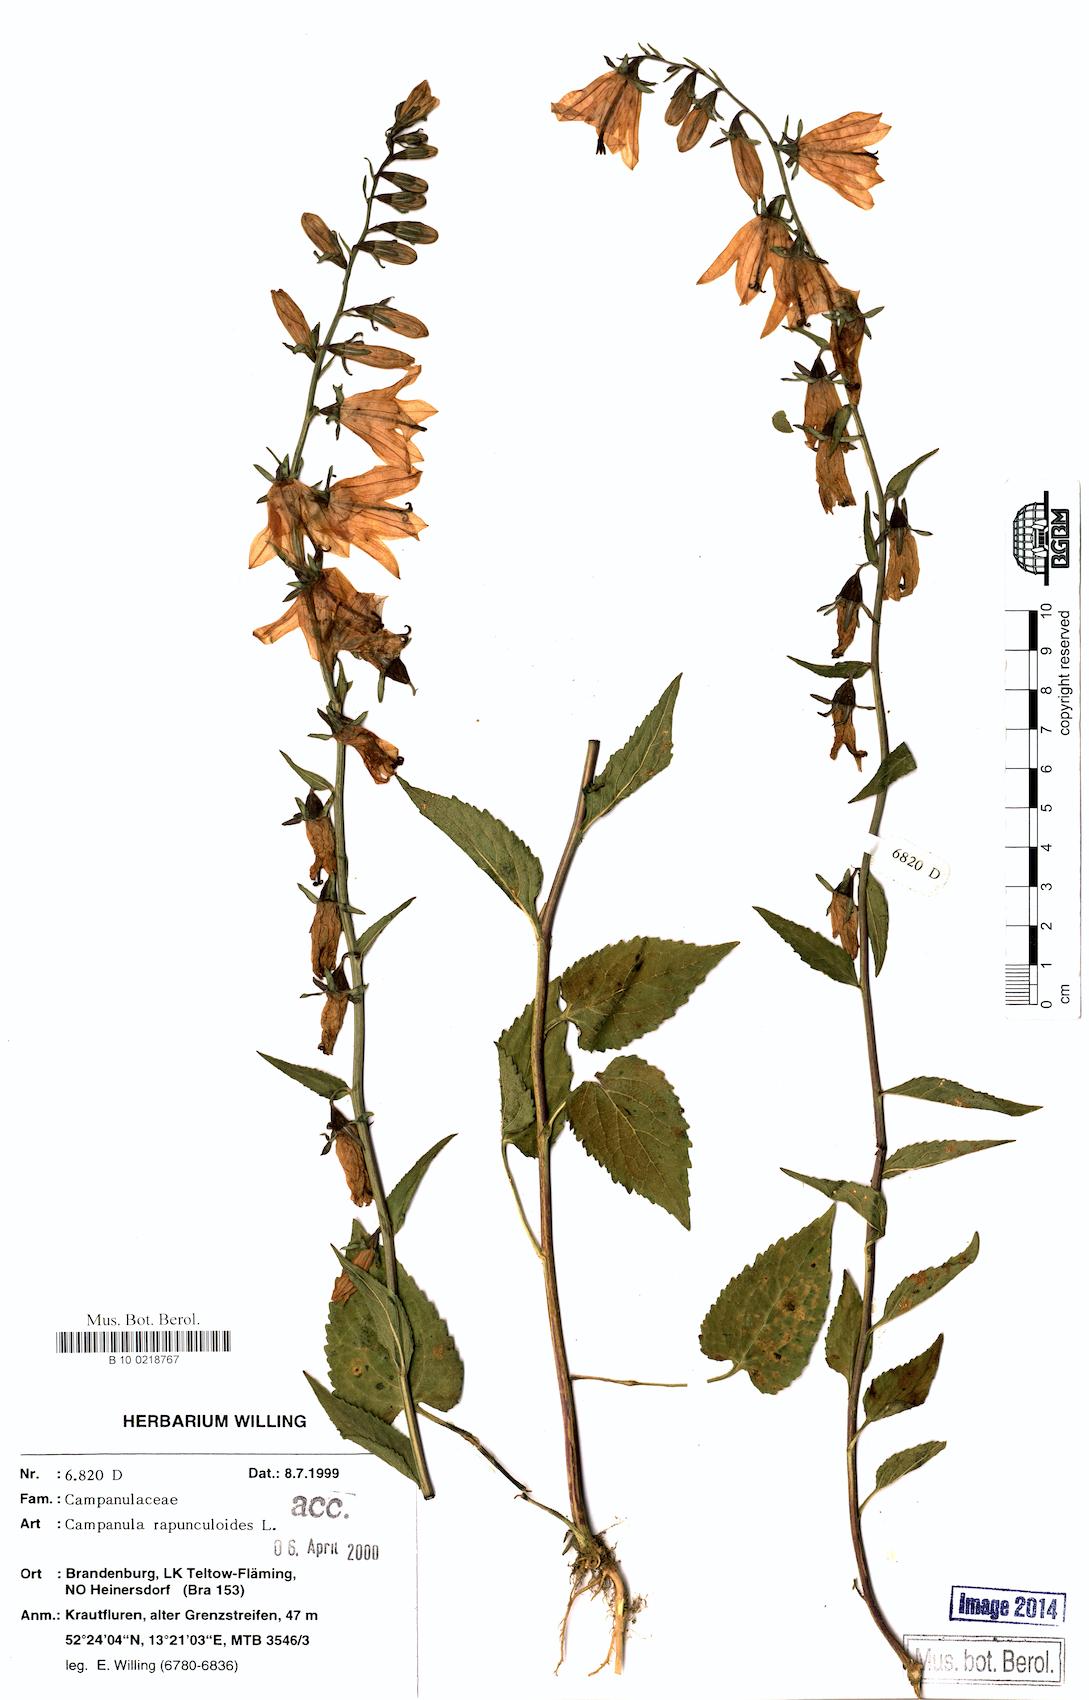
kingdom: Plantae
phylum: Tracheophyta
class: Magnoliopsida
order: Asterales
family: Campanulaceae
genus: Campanula
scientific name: Campanula rapunculoides
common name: Creeping bellflower
